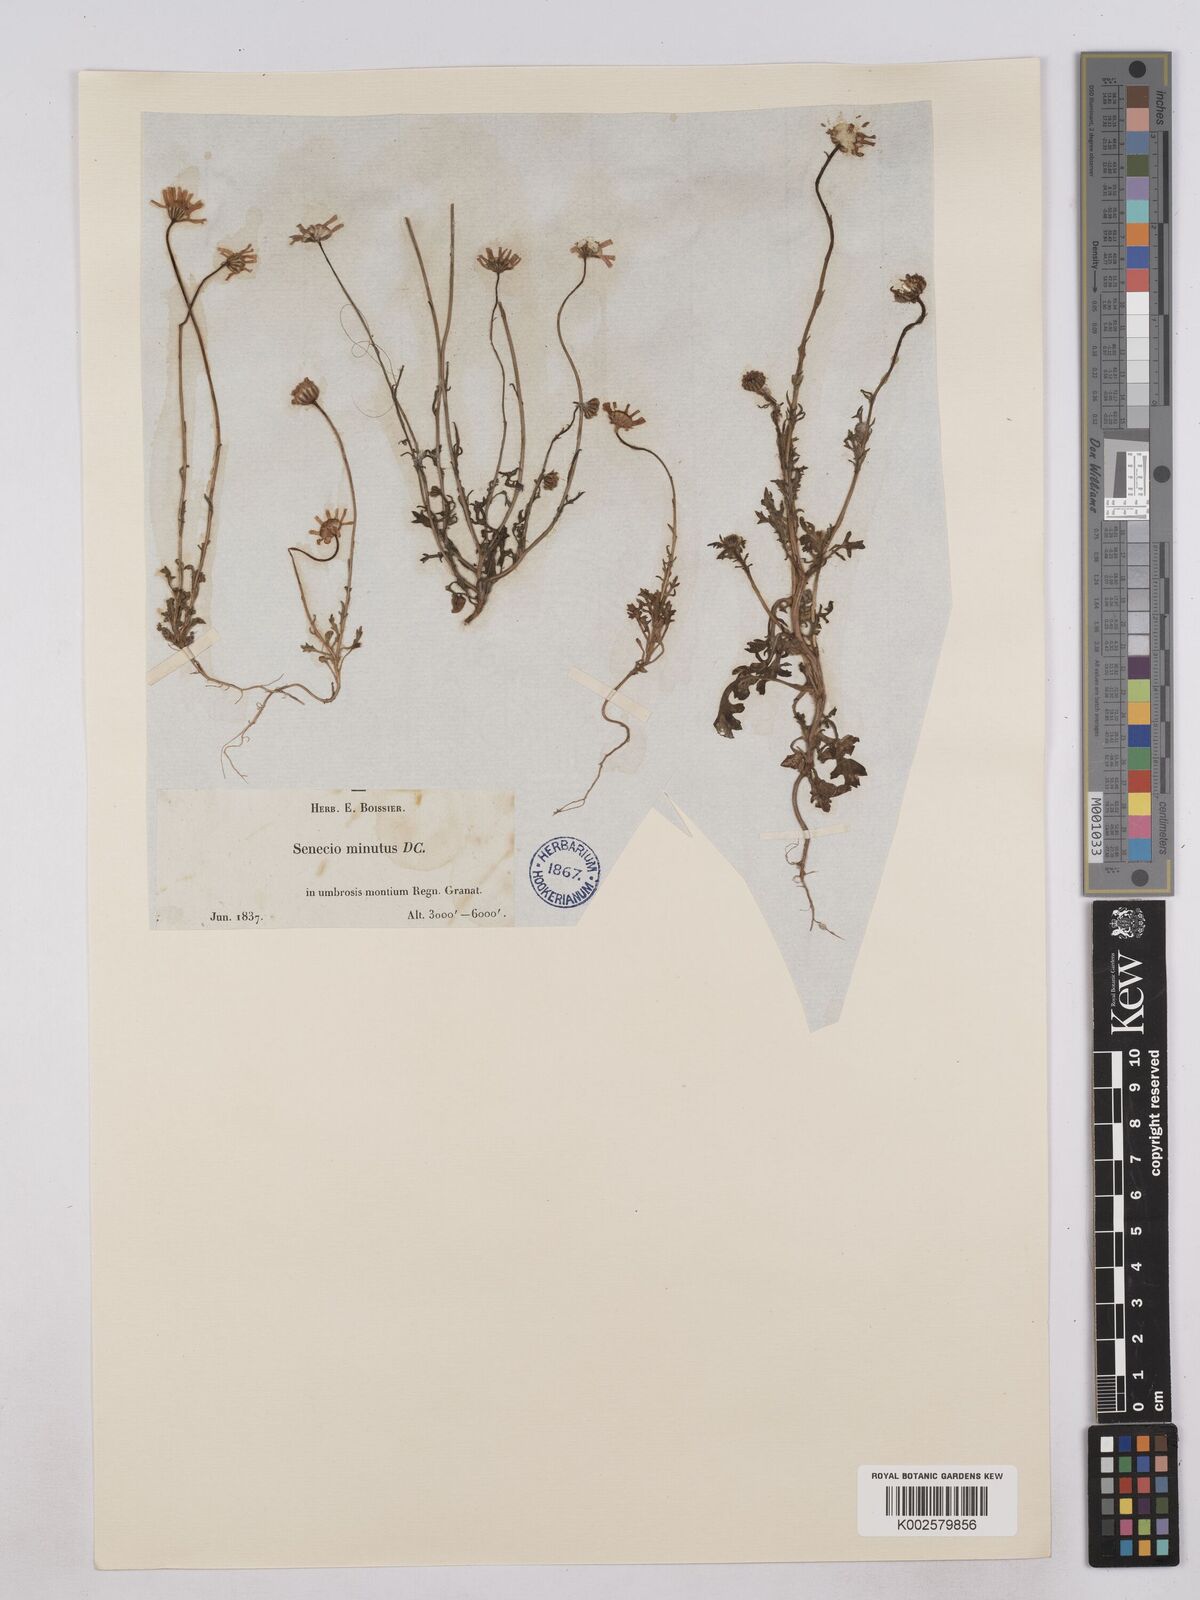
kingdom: Plantae
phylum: Tracheophyta
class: Magnoliopsida
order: Asterales
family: Asteraceae
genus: Jacobaea
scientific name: Jacobaea minuta
